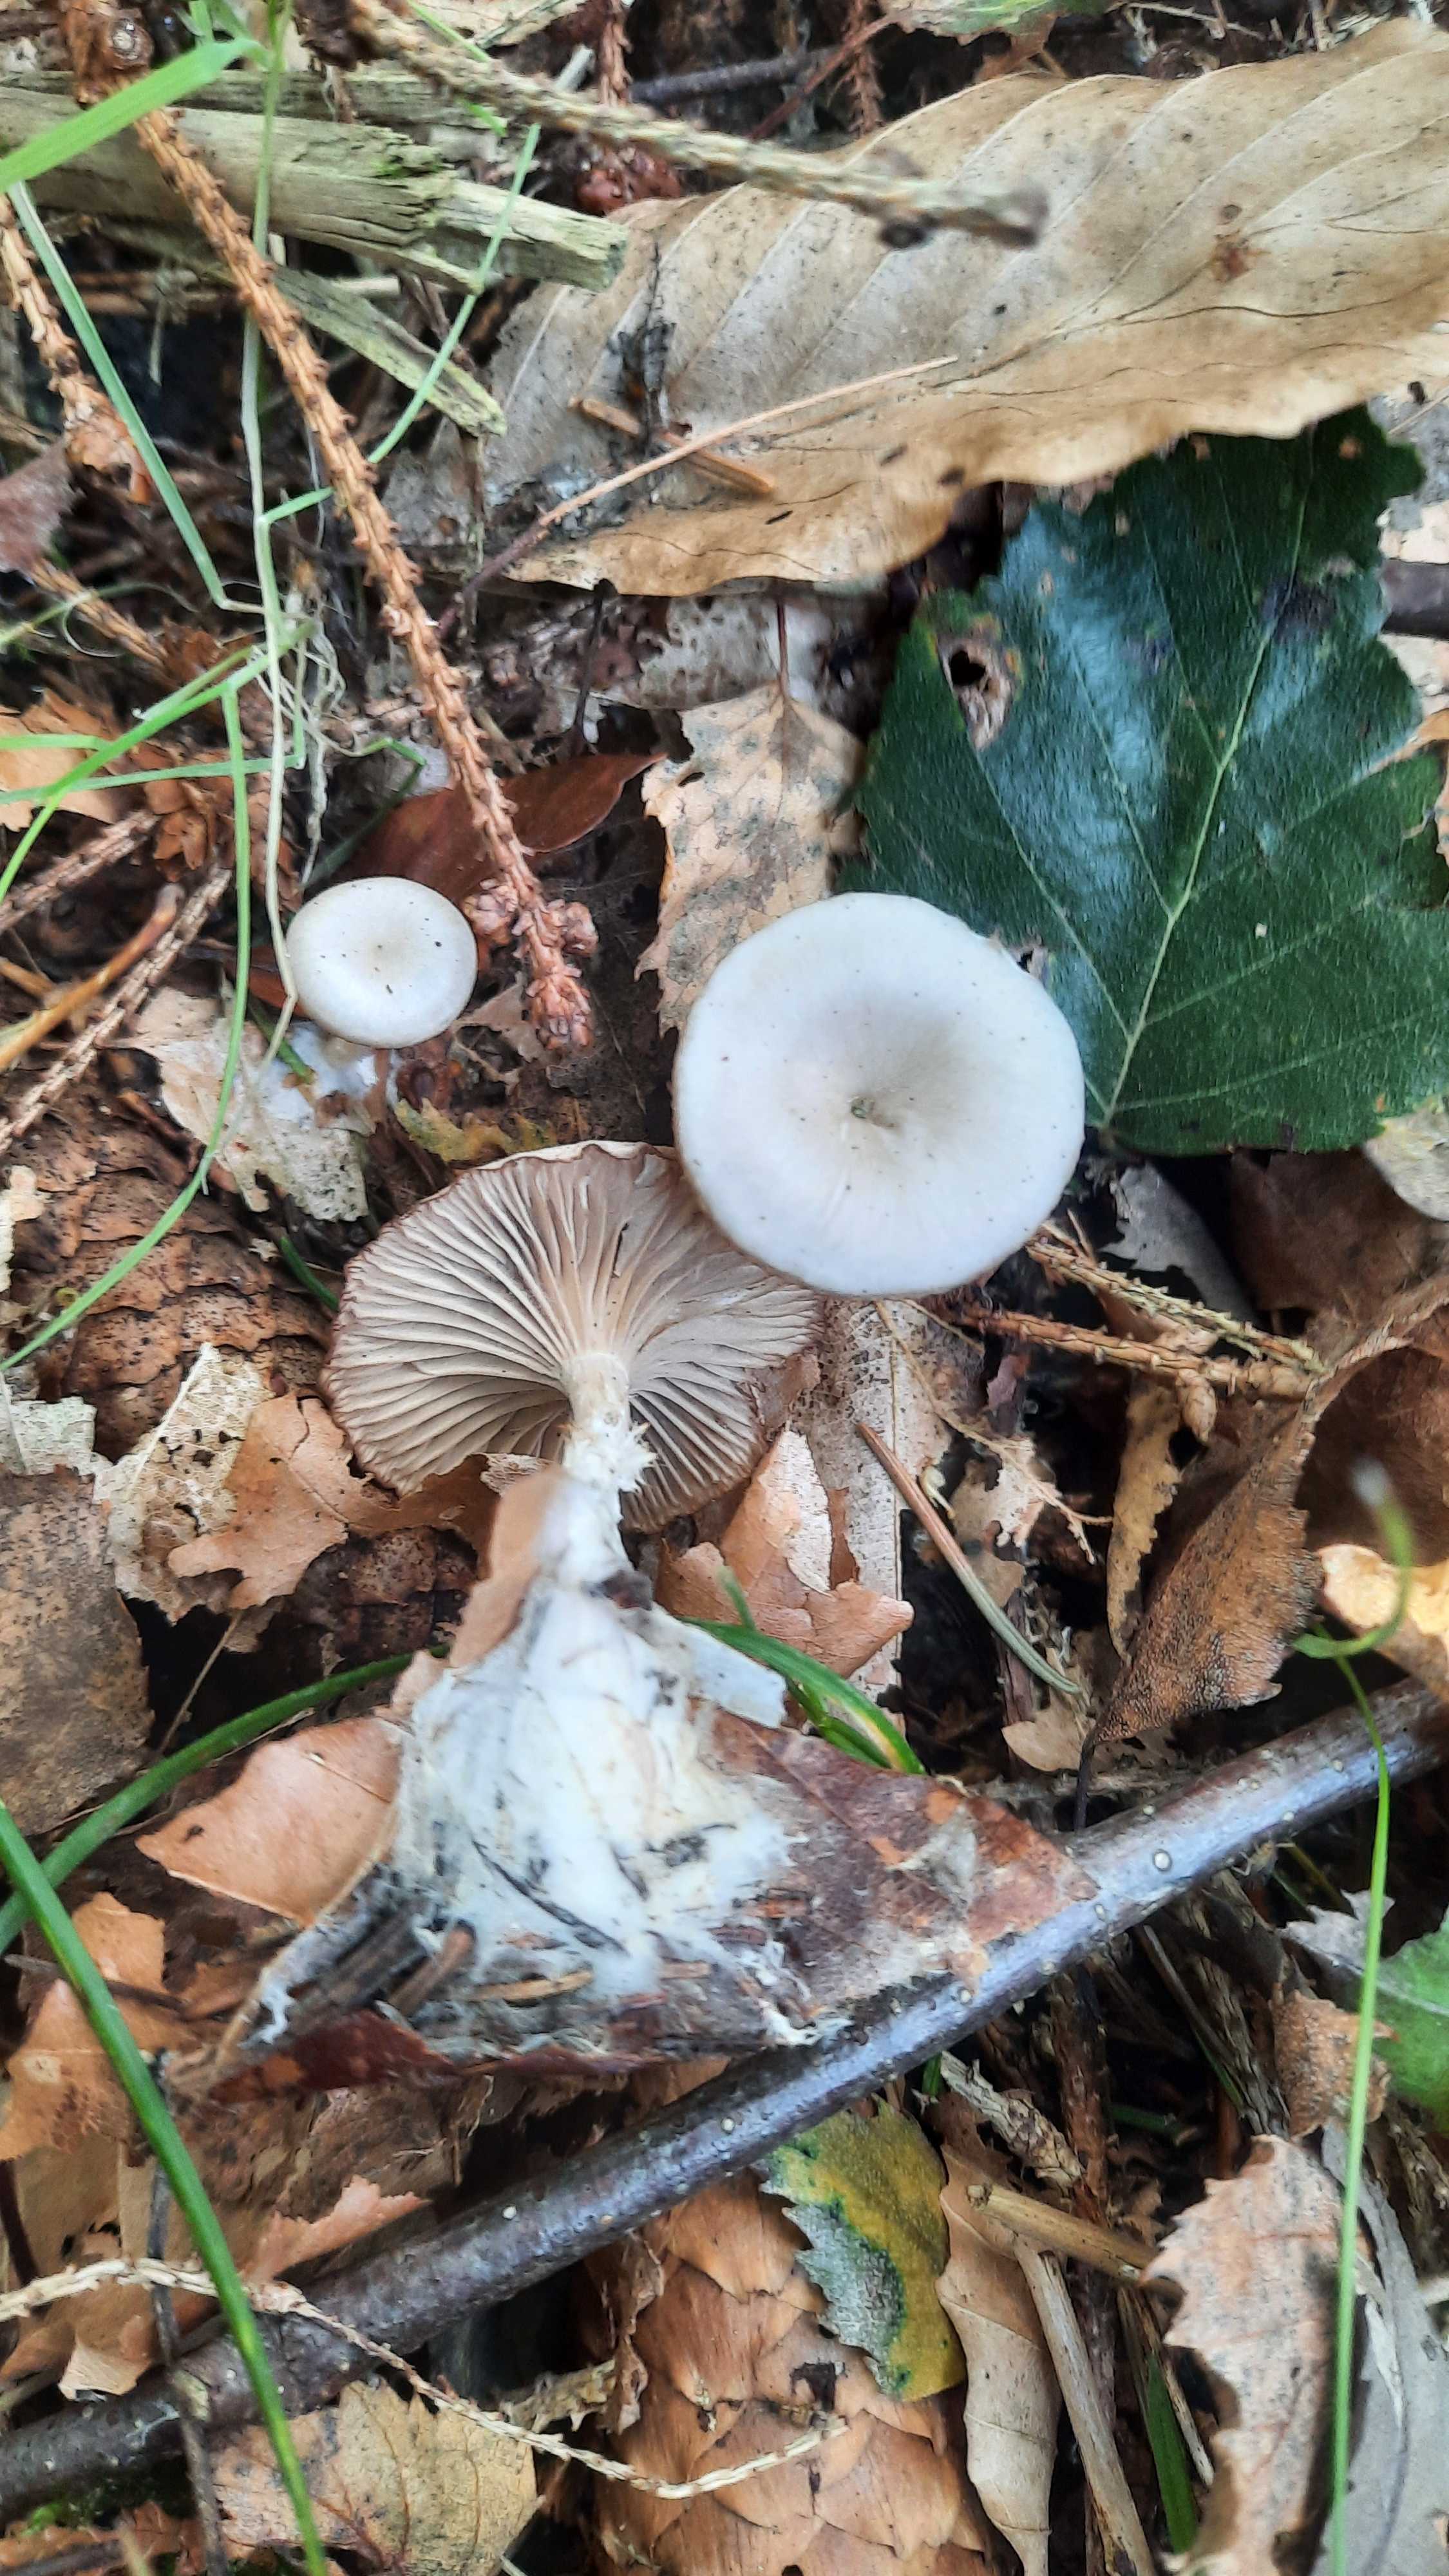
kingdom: Fungi
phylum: Basidiomycota
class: Agaricomycetes
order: Agaricales
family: Tricholomataceae
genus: Clitocybe
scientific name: Clitocybe
